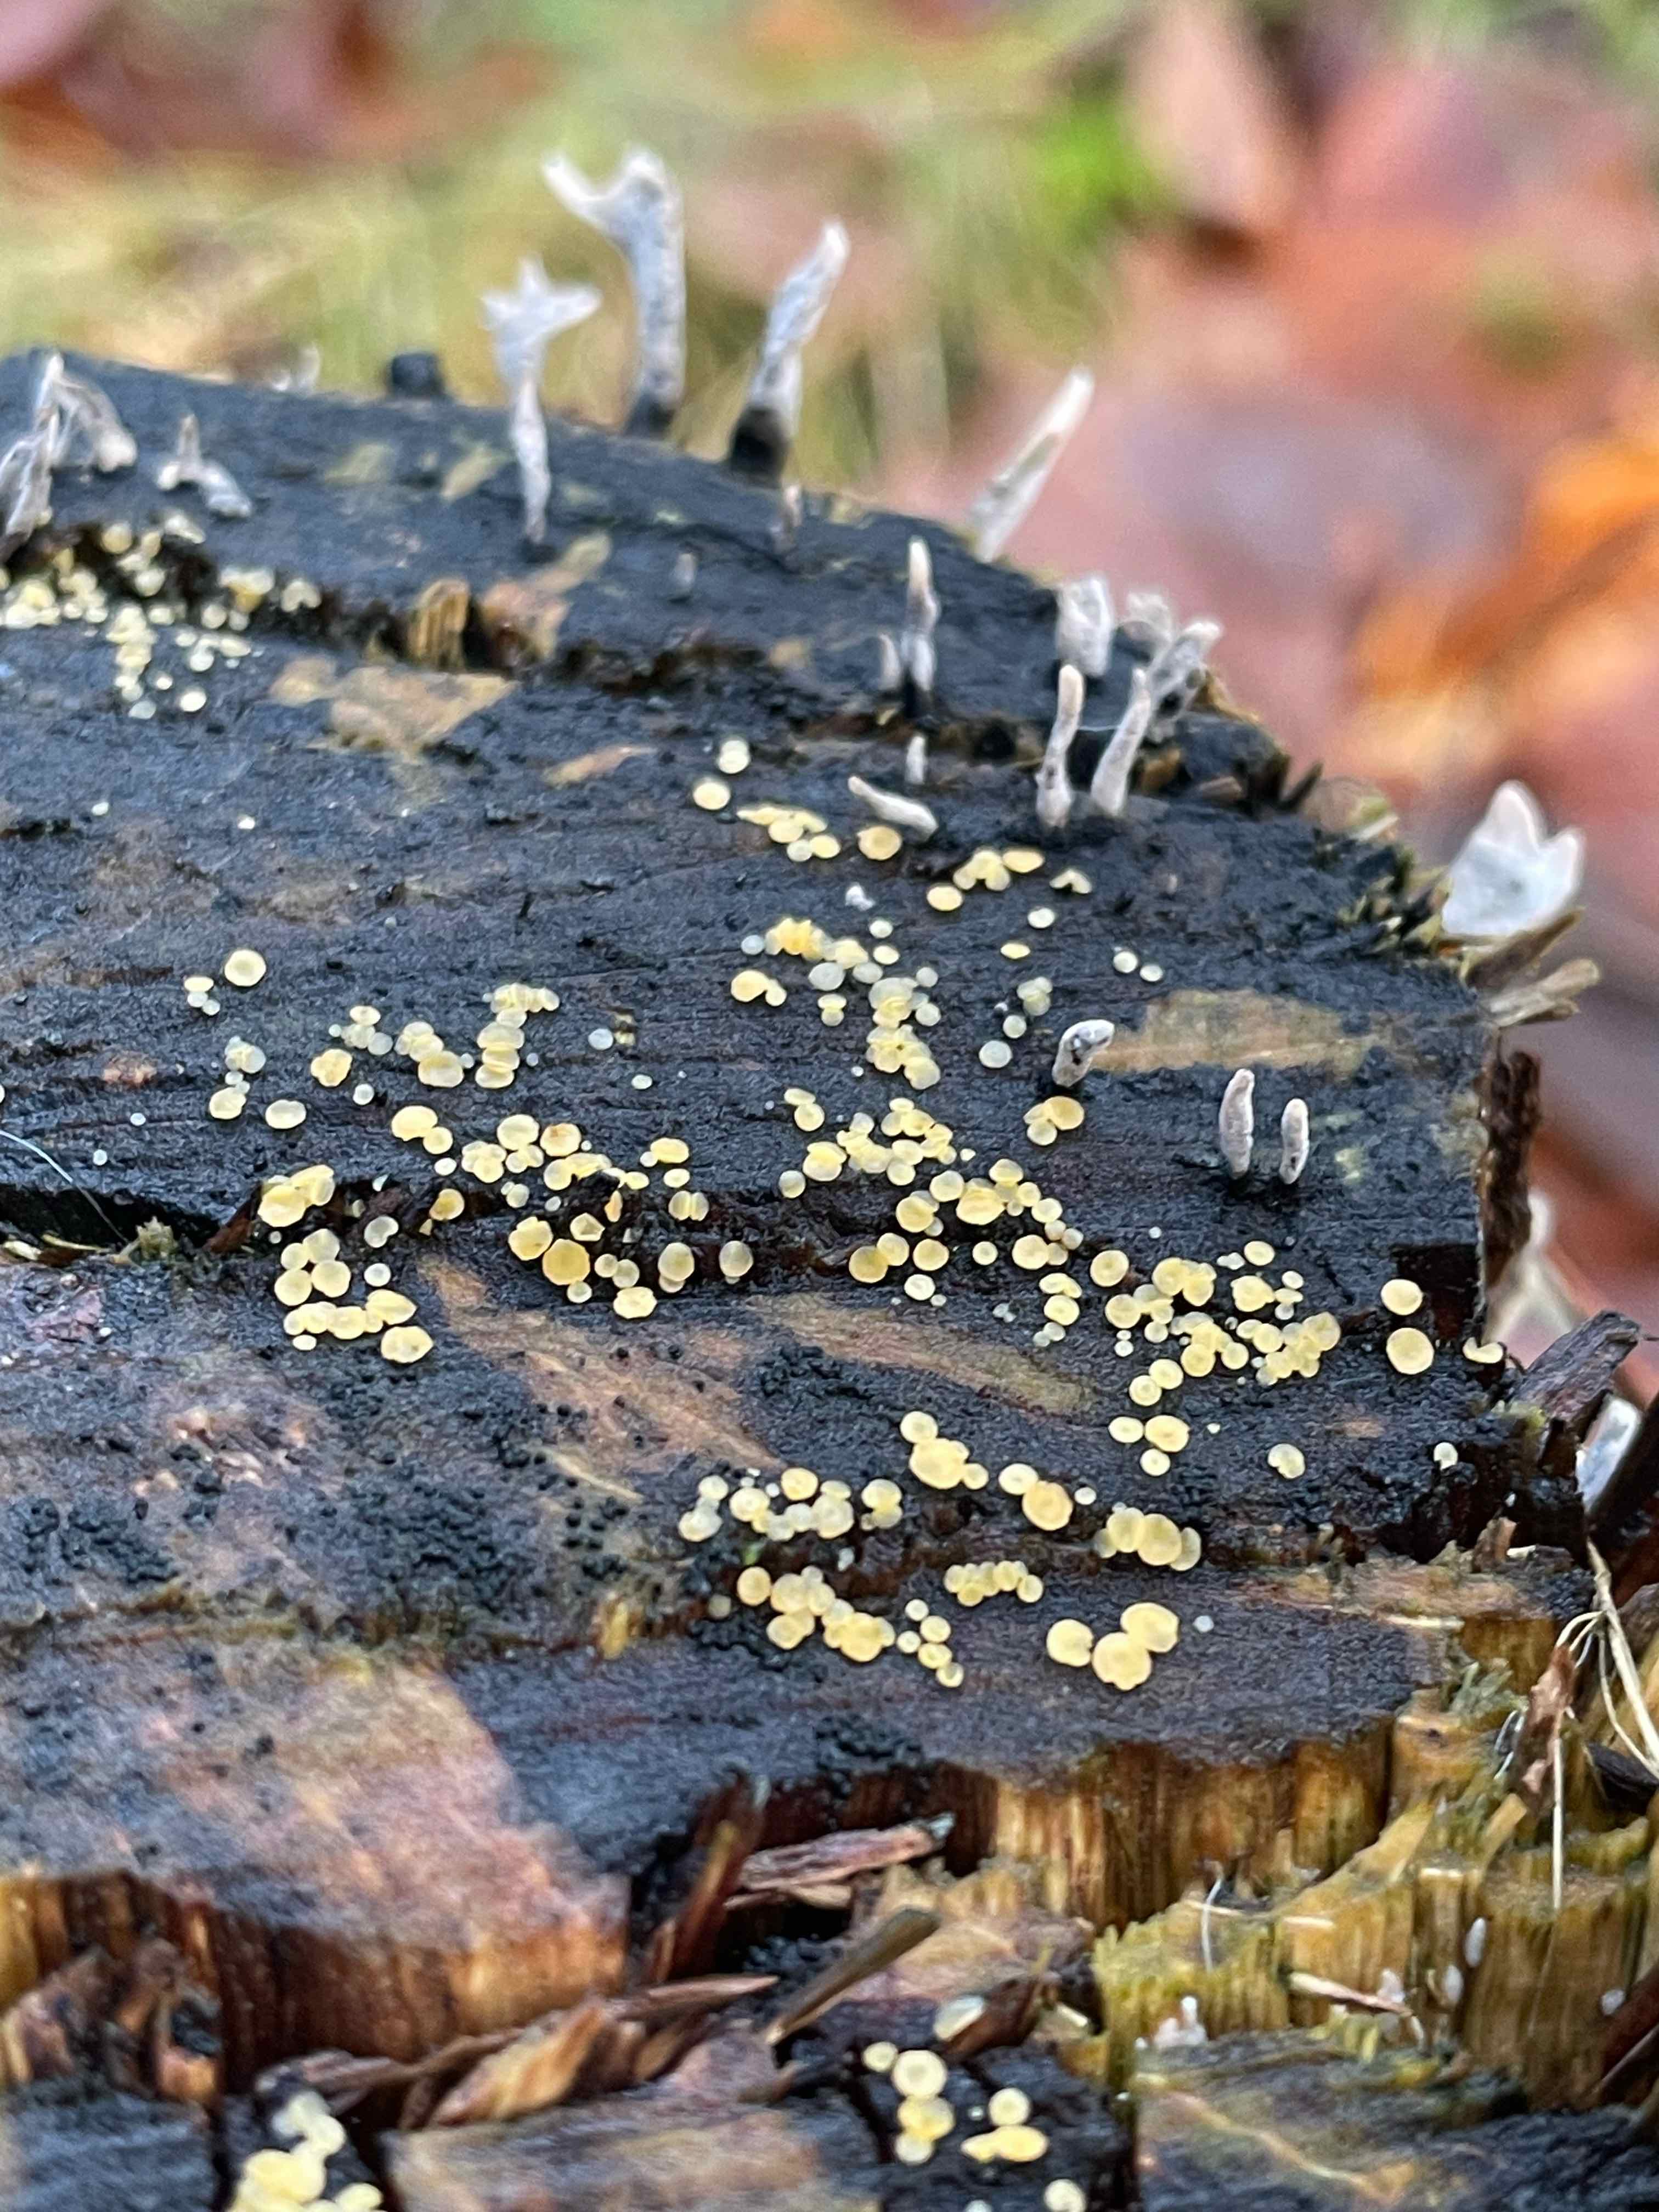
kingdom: Fungi
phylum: Ascomycota
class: Leotiomycetes
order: Helotiales
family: Helotiaceae
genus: Bisporella
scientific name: Bisporella
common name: snitskive
